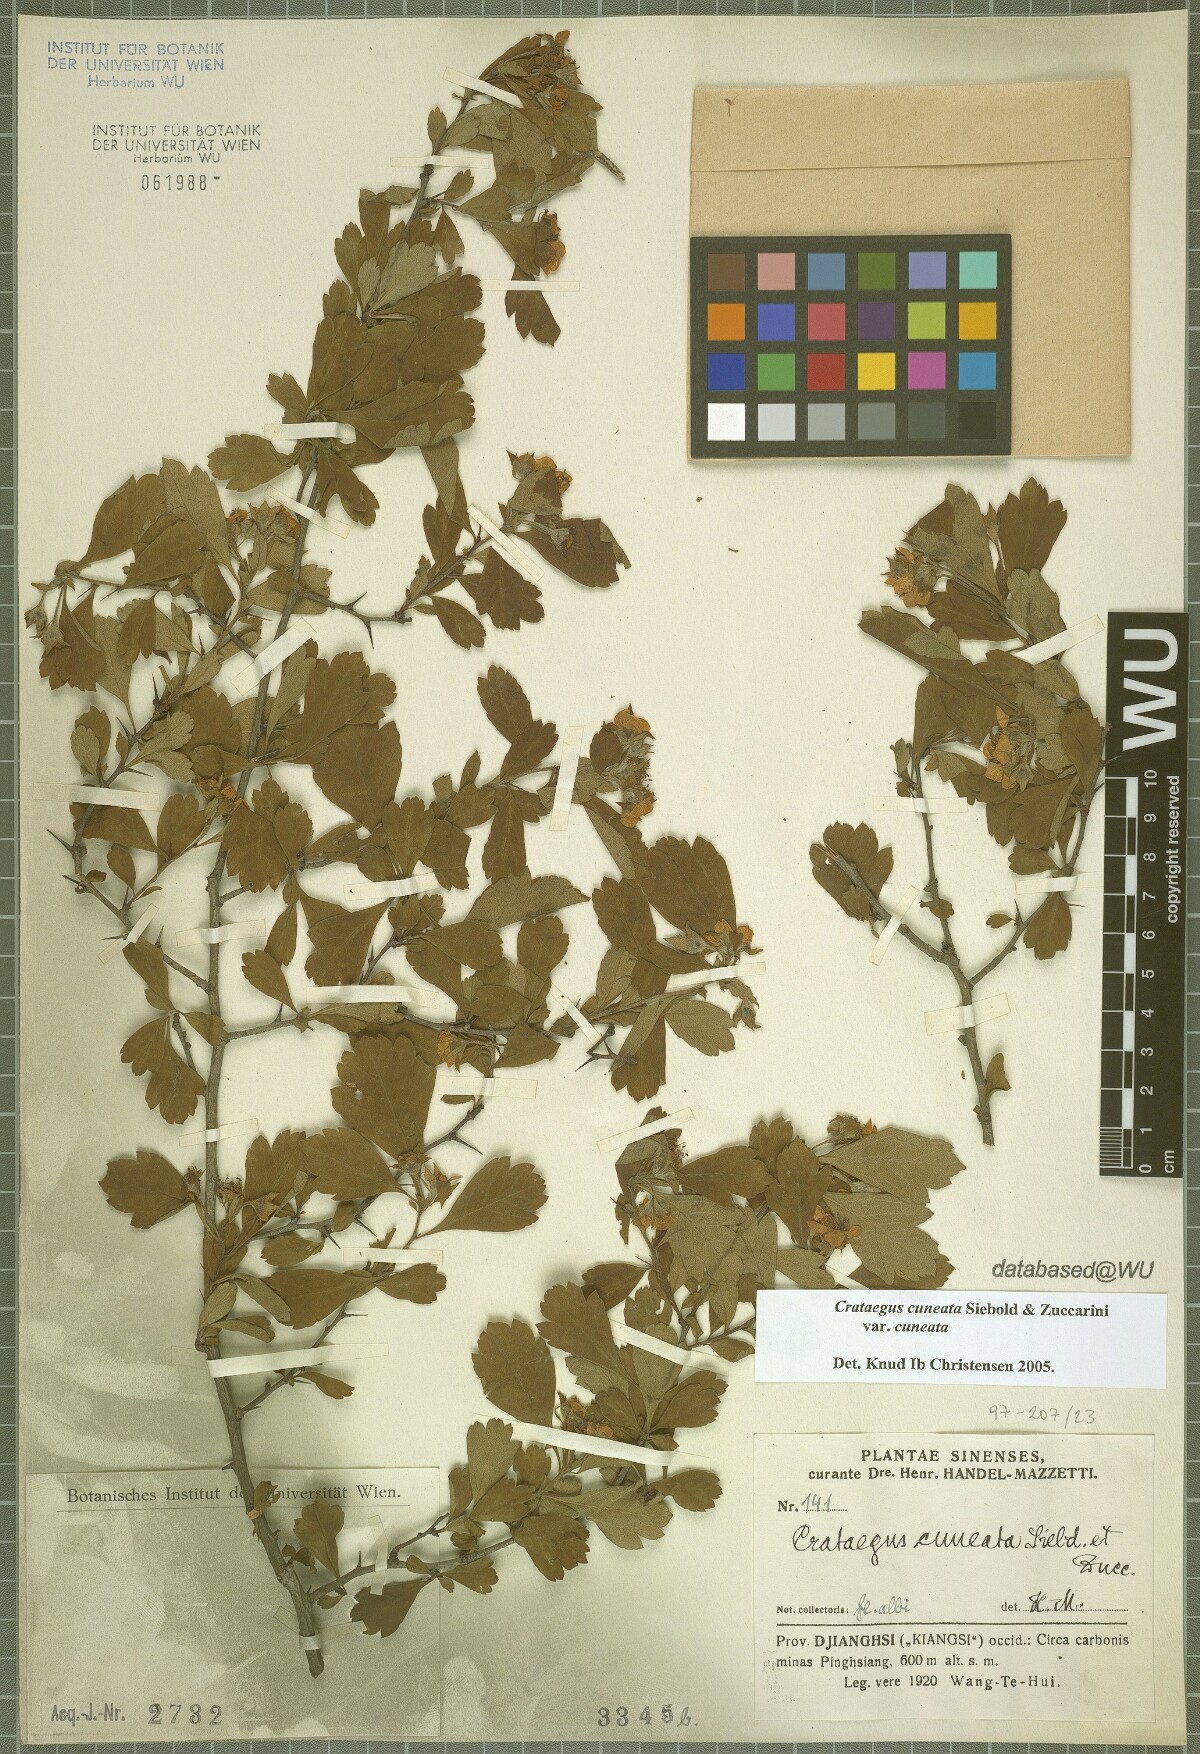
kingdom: Plantae
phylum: Tracheophyta
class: Magnoliopsida
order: Rosales
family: Rosaceae
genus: Crataegus
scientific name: Crataegus cuneata
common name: Chinese hawthorn
